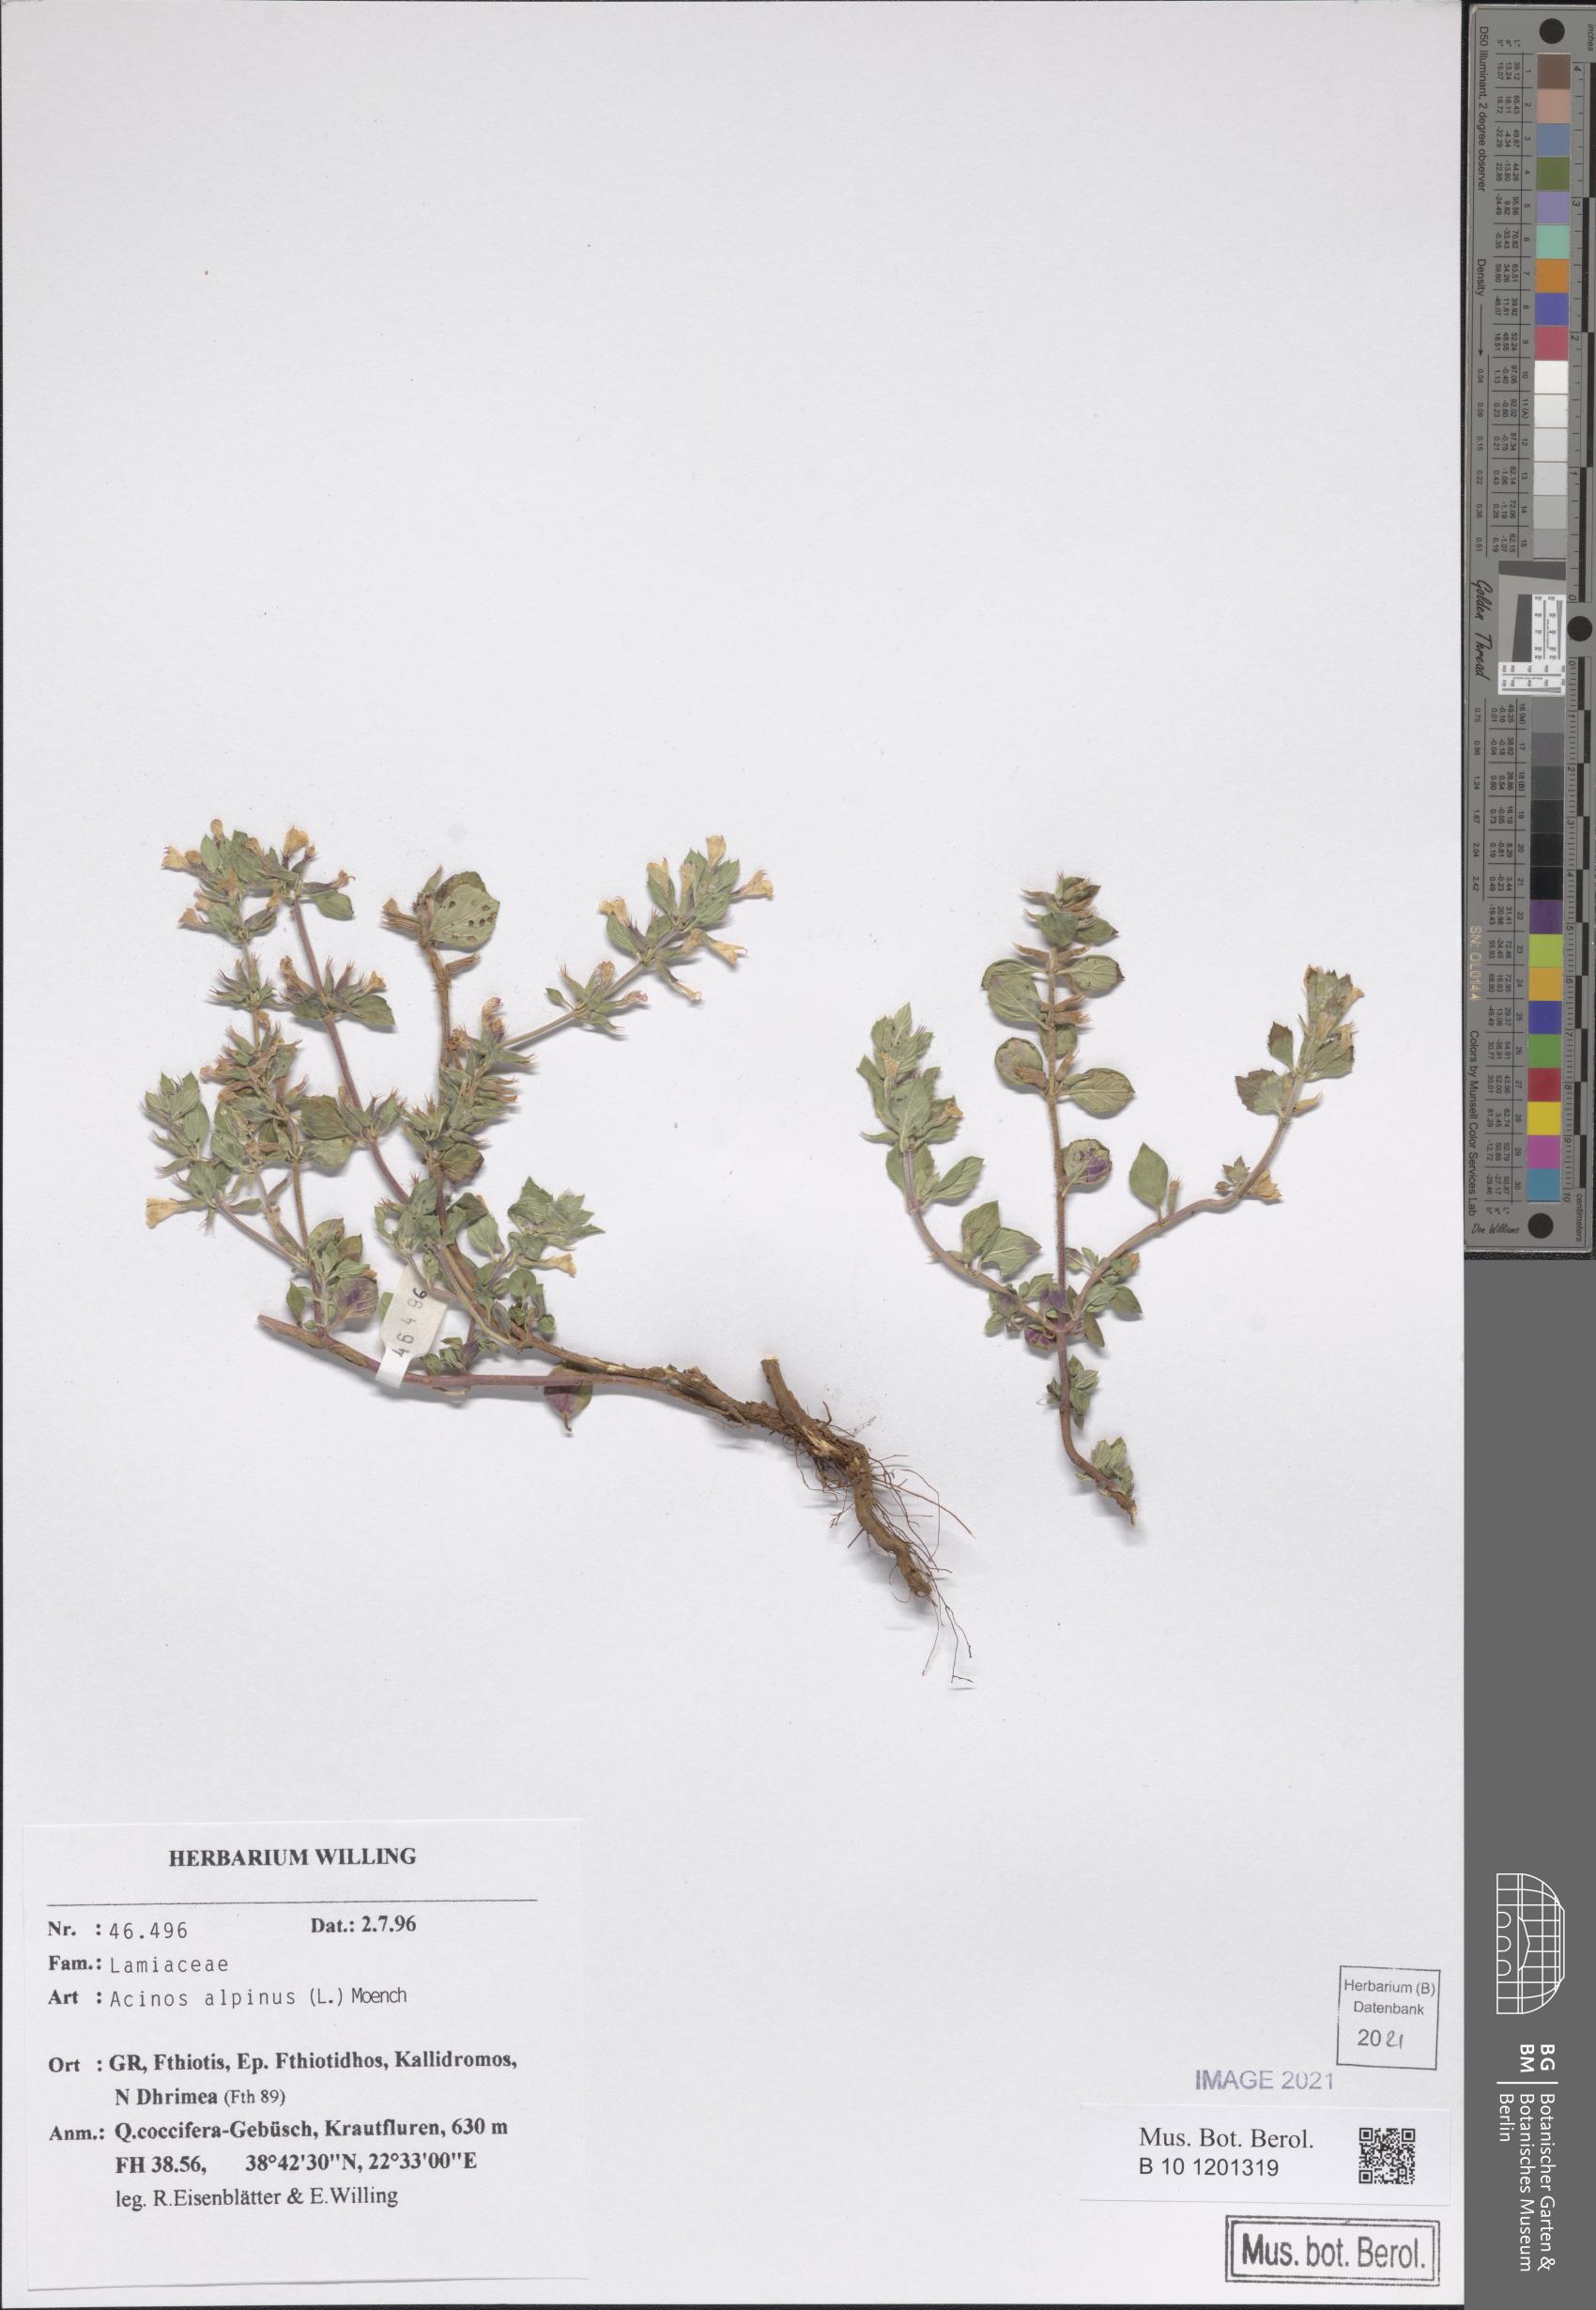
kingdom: Plantae
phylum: Tracheophyta
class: Magnoliopsida
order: Lamiales
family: Lamiaceae
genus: Clinopodium
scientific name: Clinopodium alpinum
